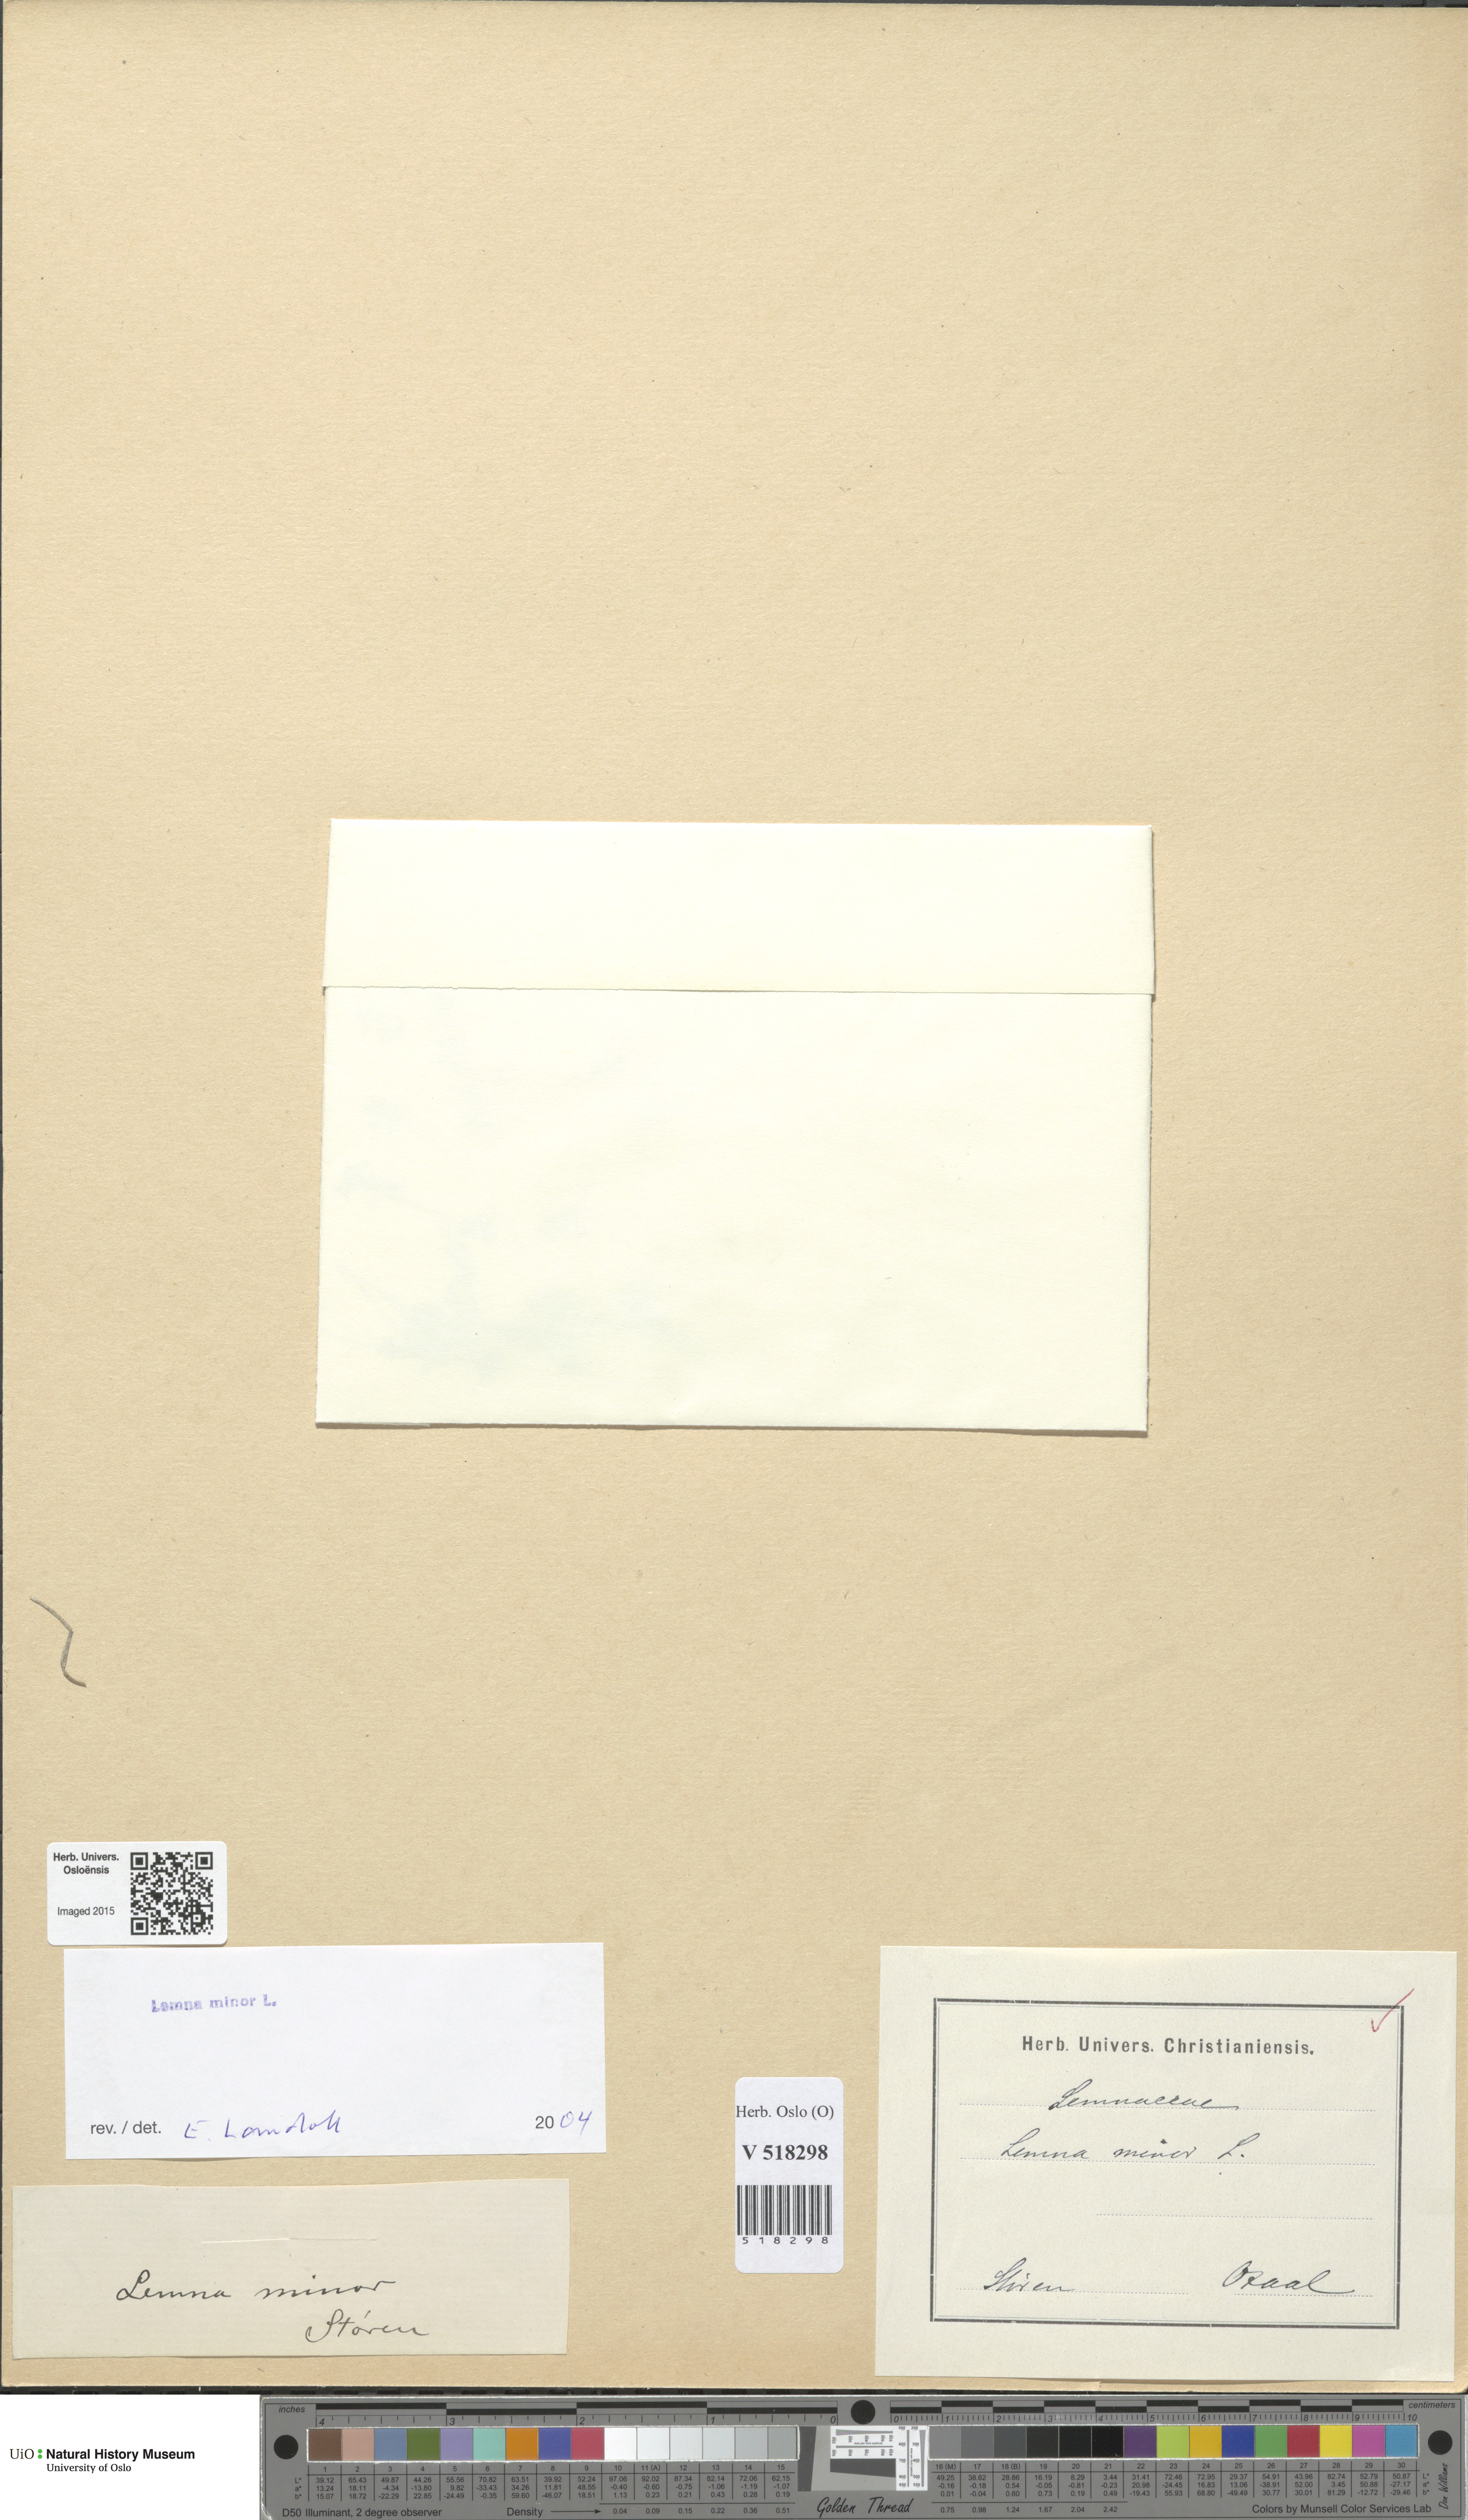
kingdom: Plantae
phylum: Tracheophyta
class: Liliopsida
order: Alismatales
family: Araceae
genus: Lemna
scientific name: Lemna minor
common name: Common duckweed
